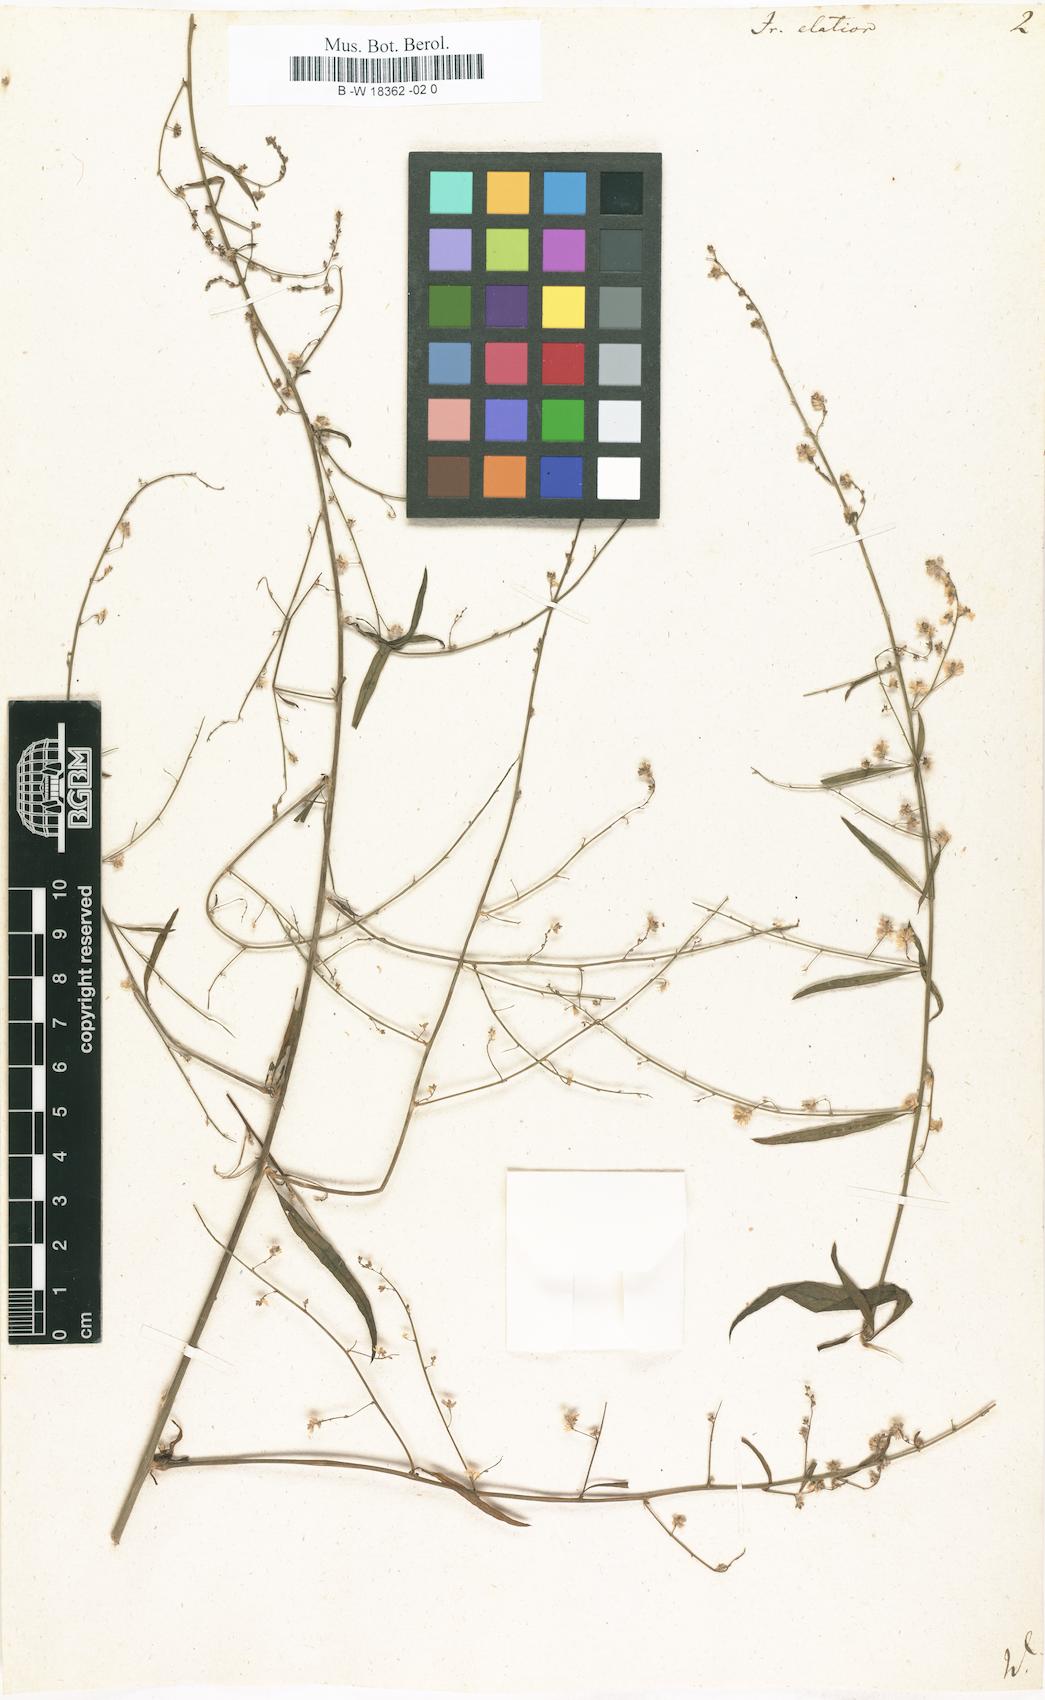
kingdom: Plantae
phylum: Tracheophyta
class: Magnoliopsida
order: Caryophyllales
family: Amaranthaceae
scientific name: Amaranthaceae
